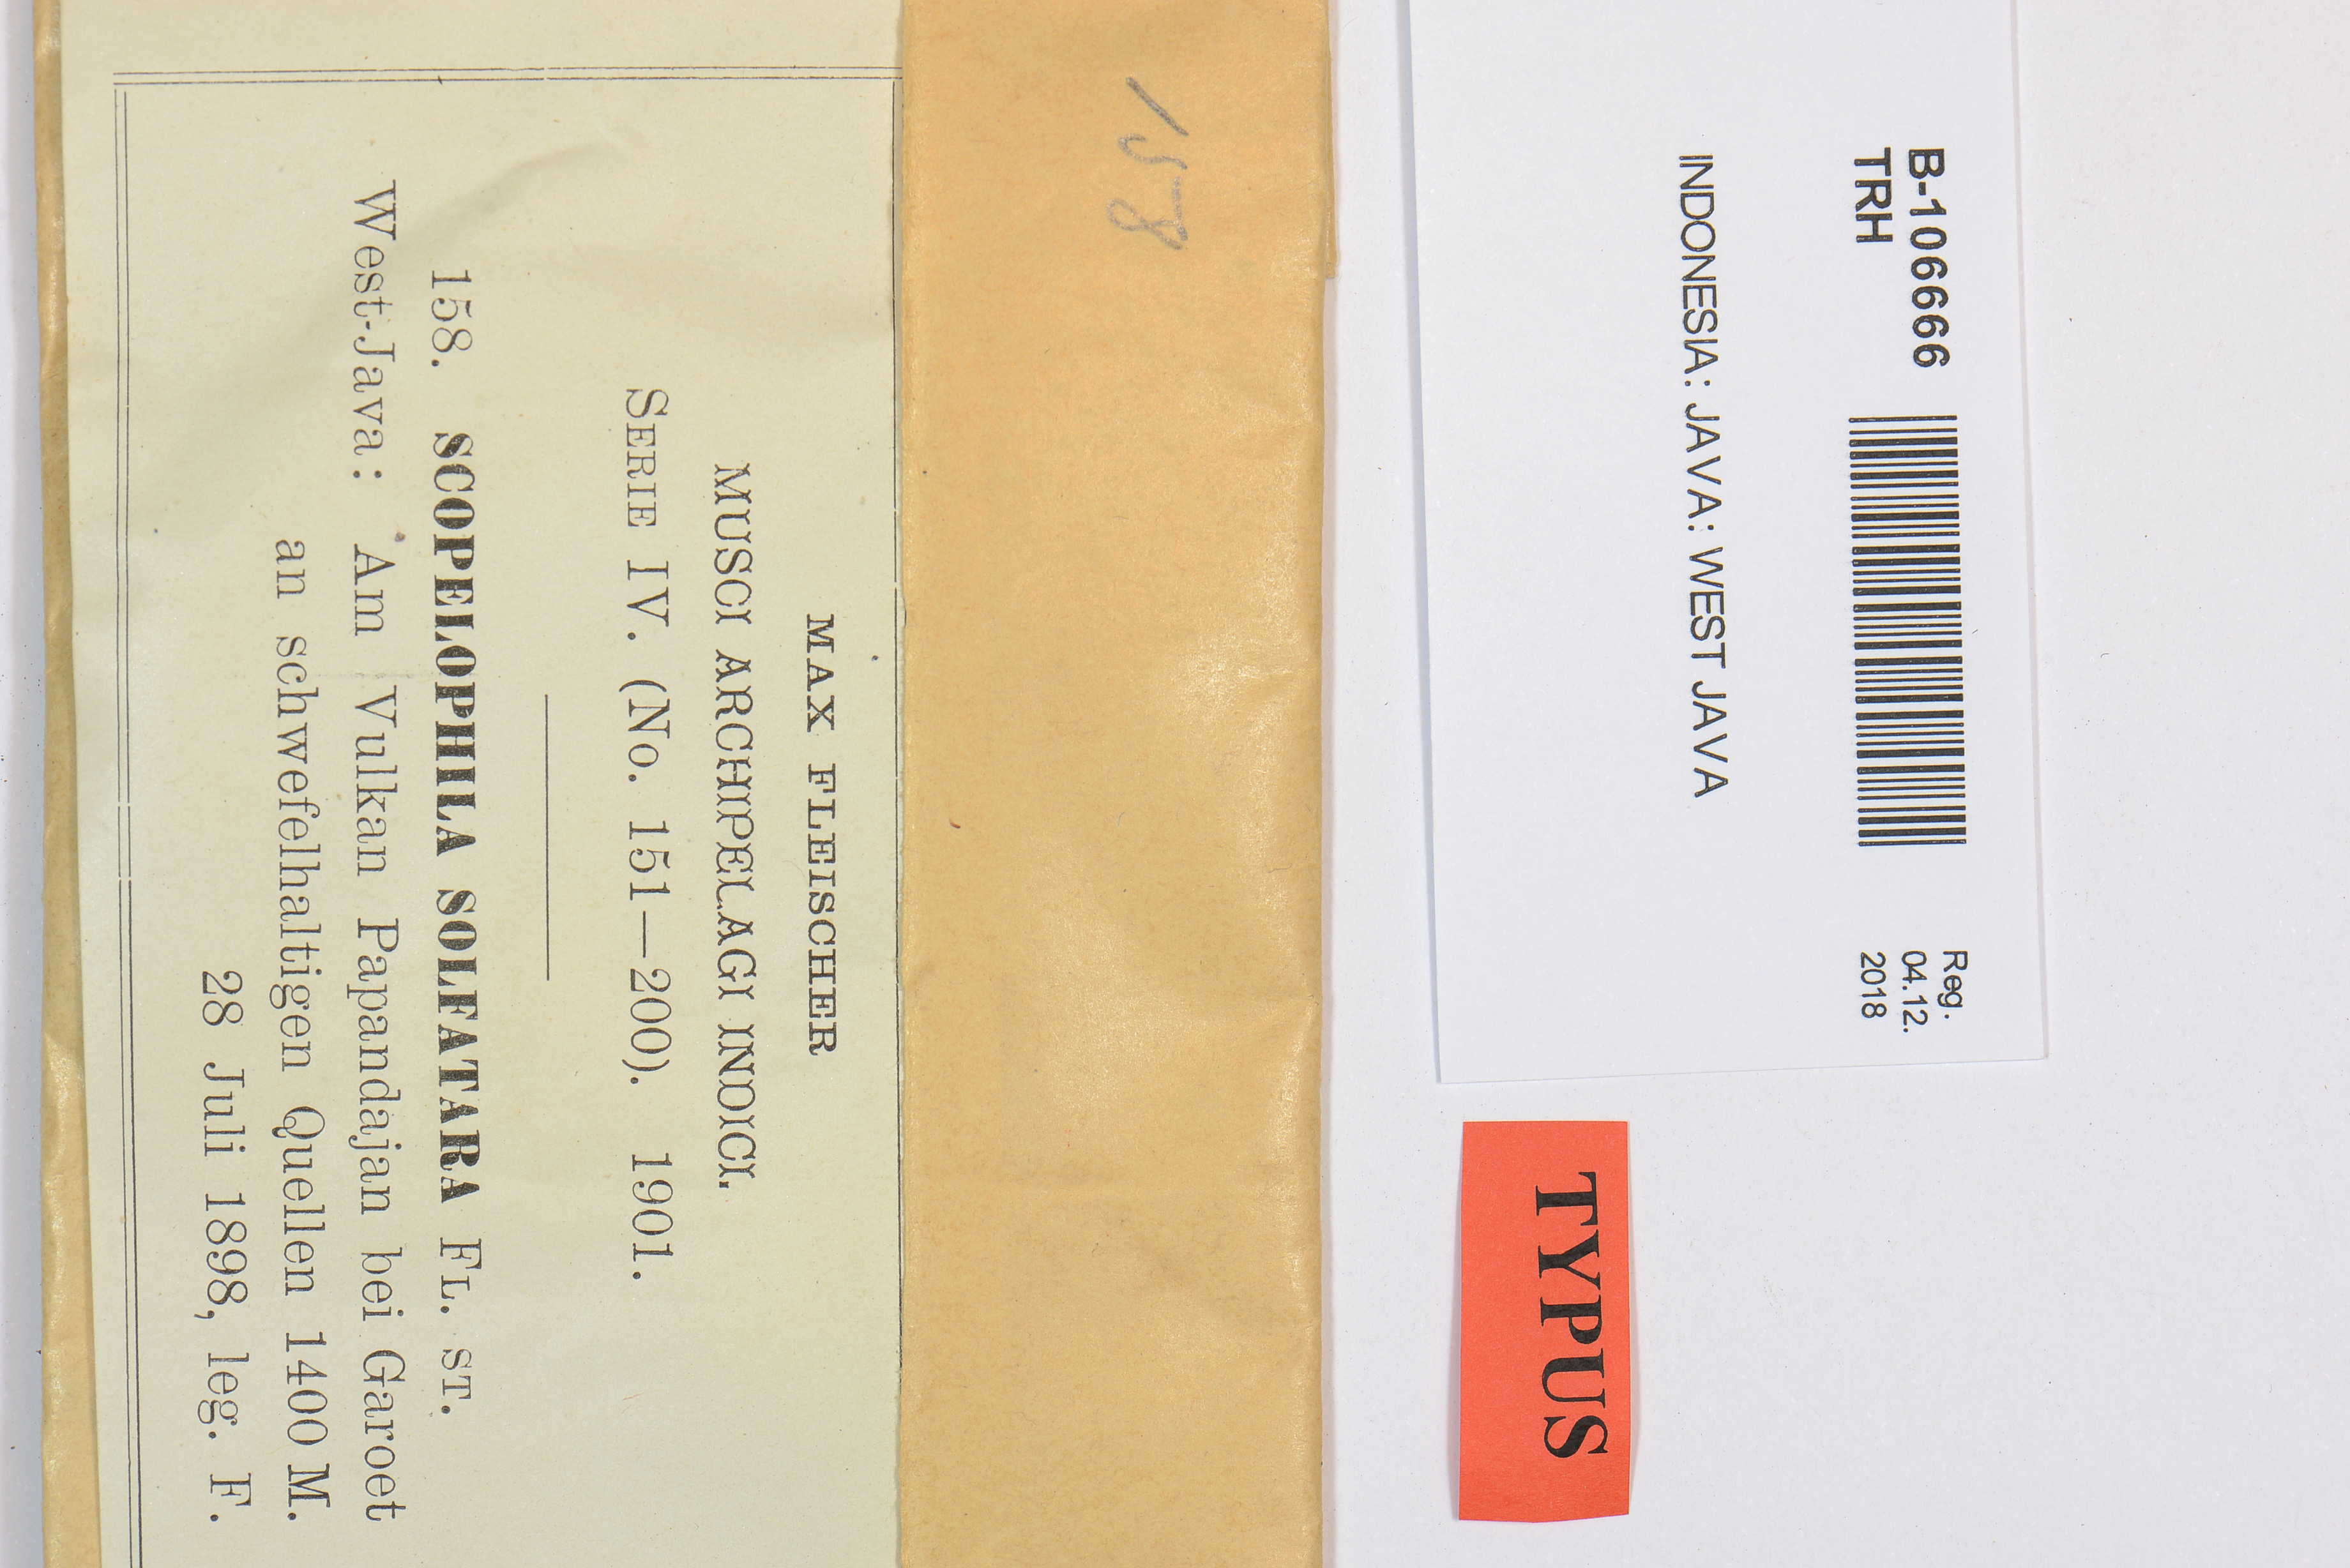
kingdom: Plantae
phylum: Bryophyta
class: Bryopsida
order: Pottiales
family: Pottiaceae
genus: Scopelophila
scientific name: Scopelophila ligulata
